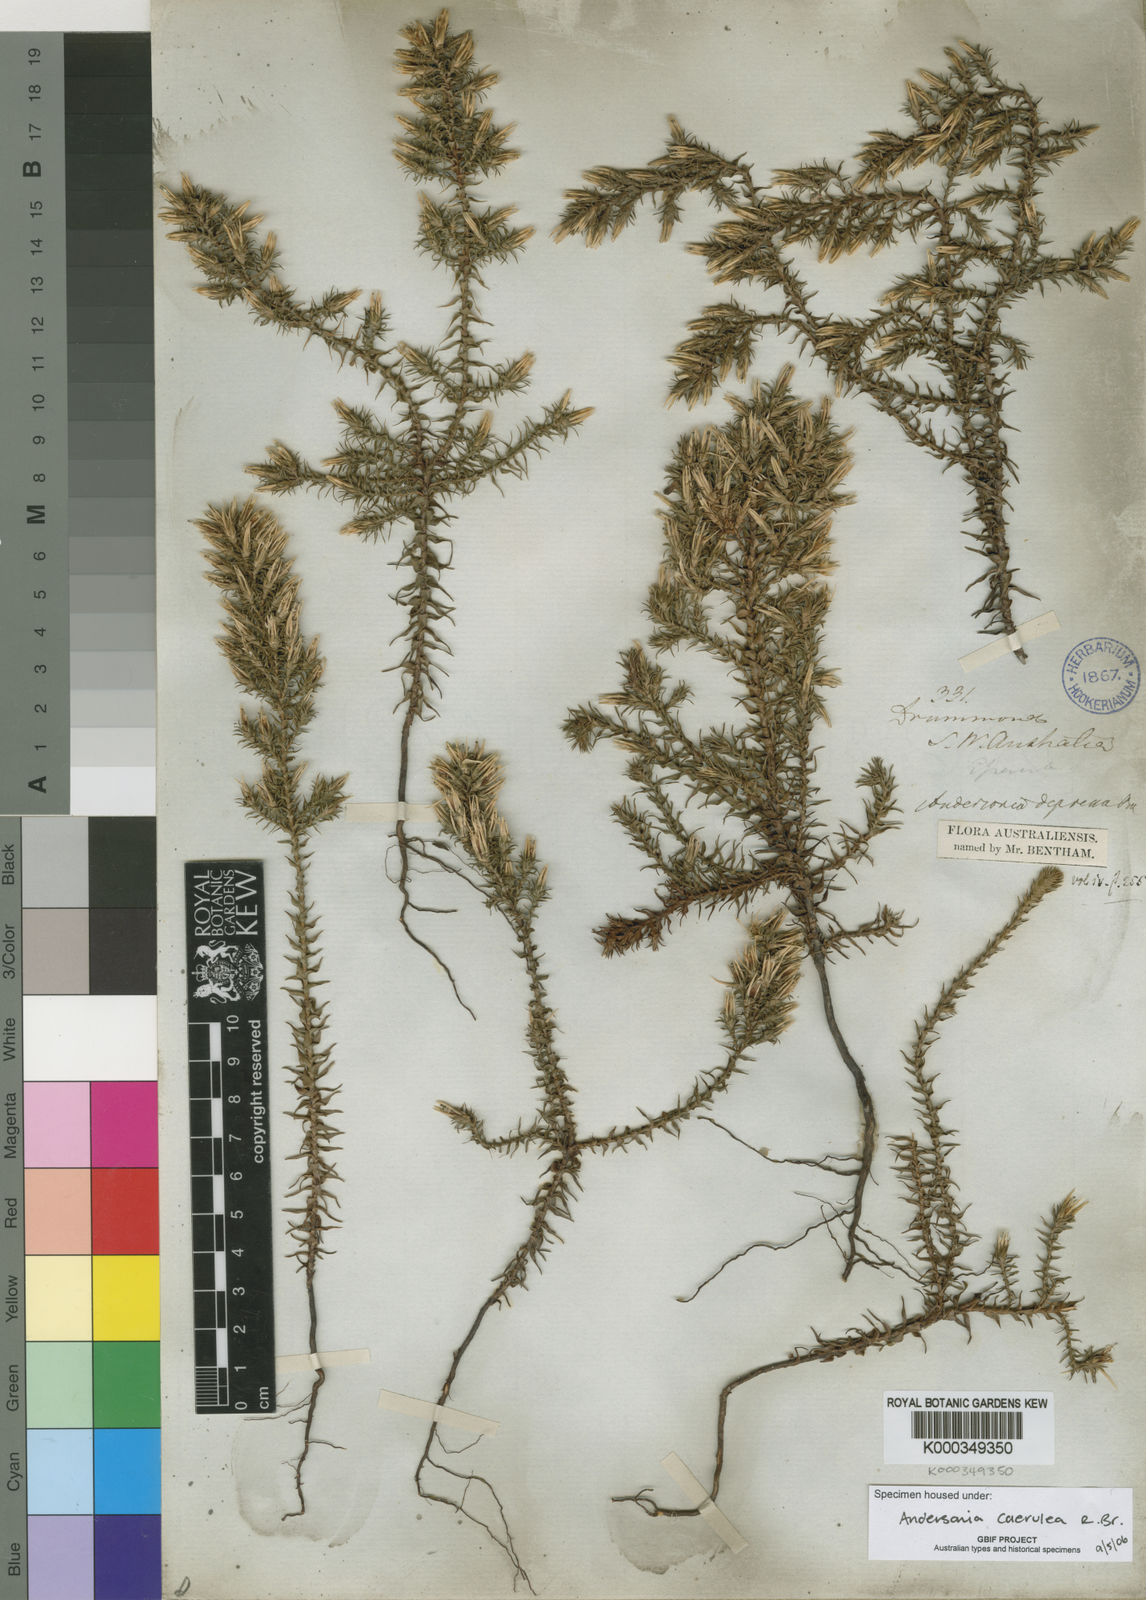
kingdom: Plantae
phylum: Tracheophyta
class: Magnoliopsida
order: Ericales
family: Ericaceae
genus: Andersonia
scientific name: Andersonia caerulea
